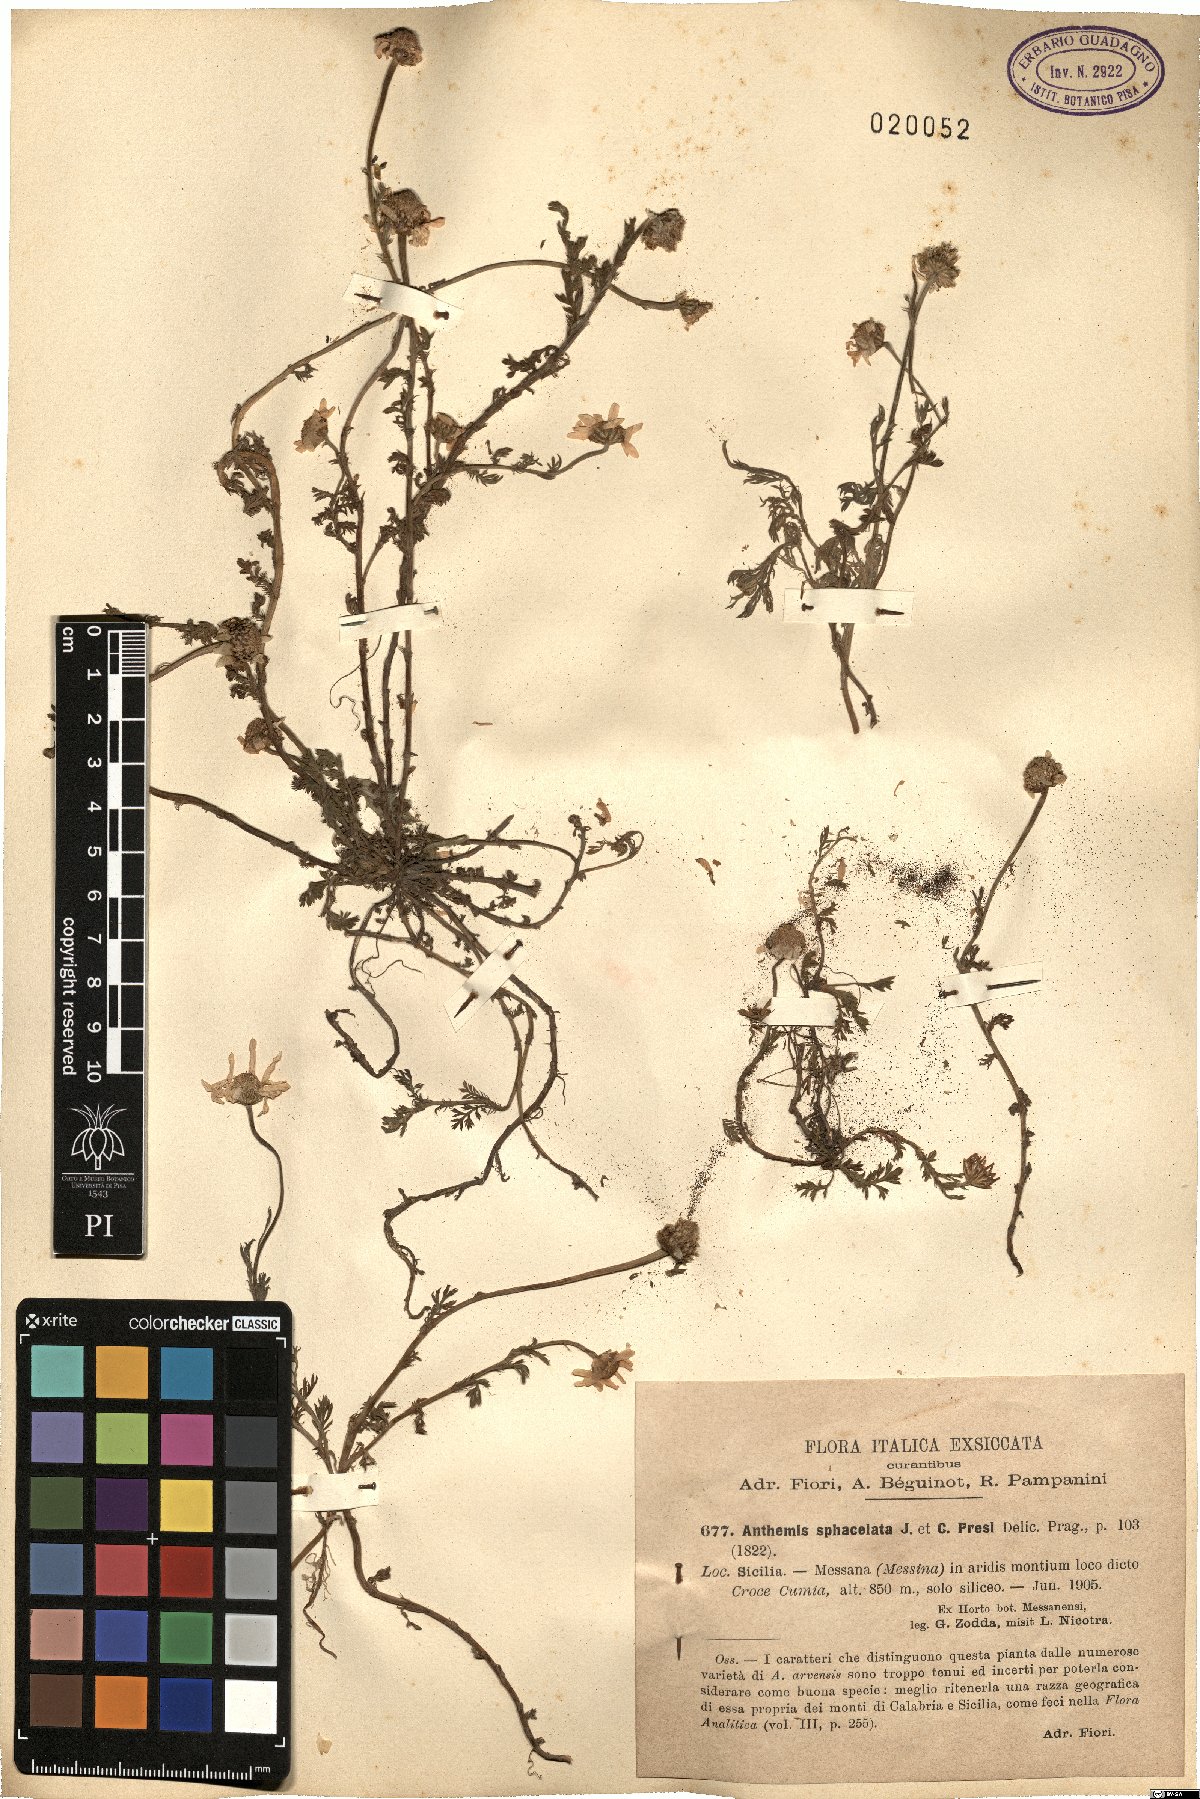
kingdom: Plantae
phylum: Tracheophyta
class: Magnoliopsida
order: Asterales
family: Asteraceae
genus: Anthemis
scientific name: Anthemis arvensis
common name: Corn chamomile
